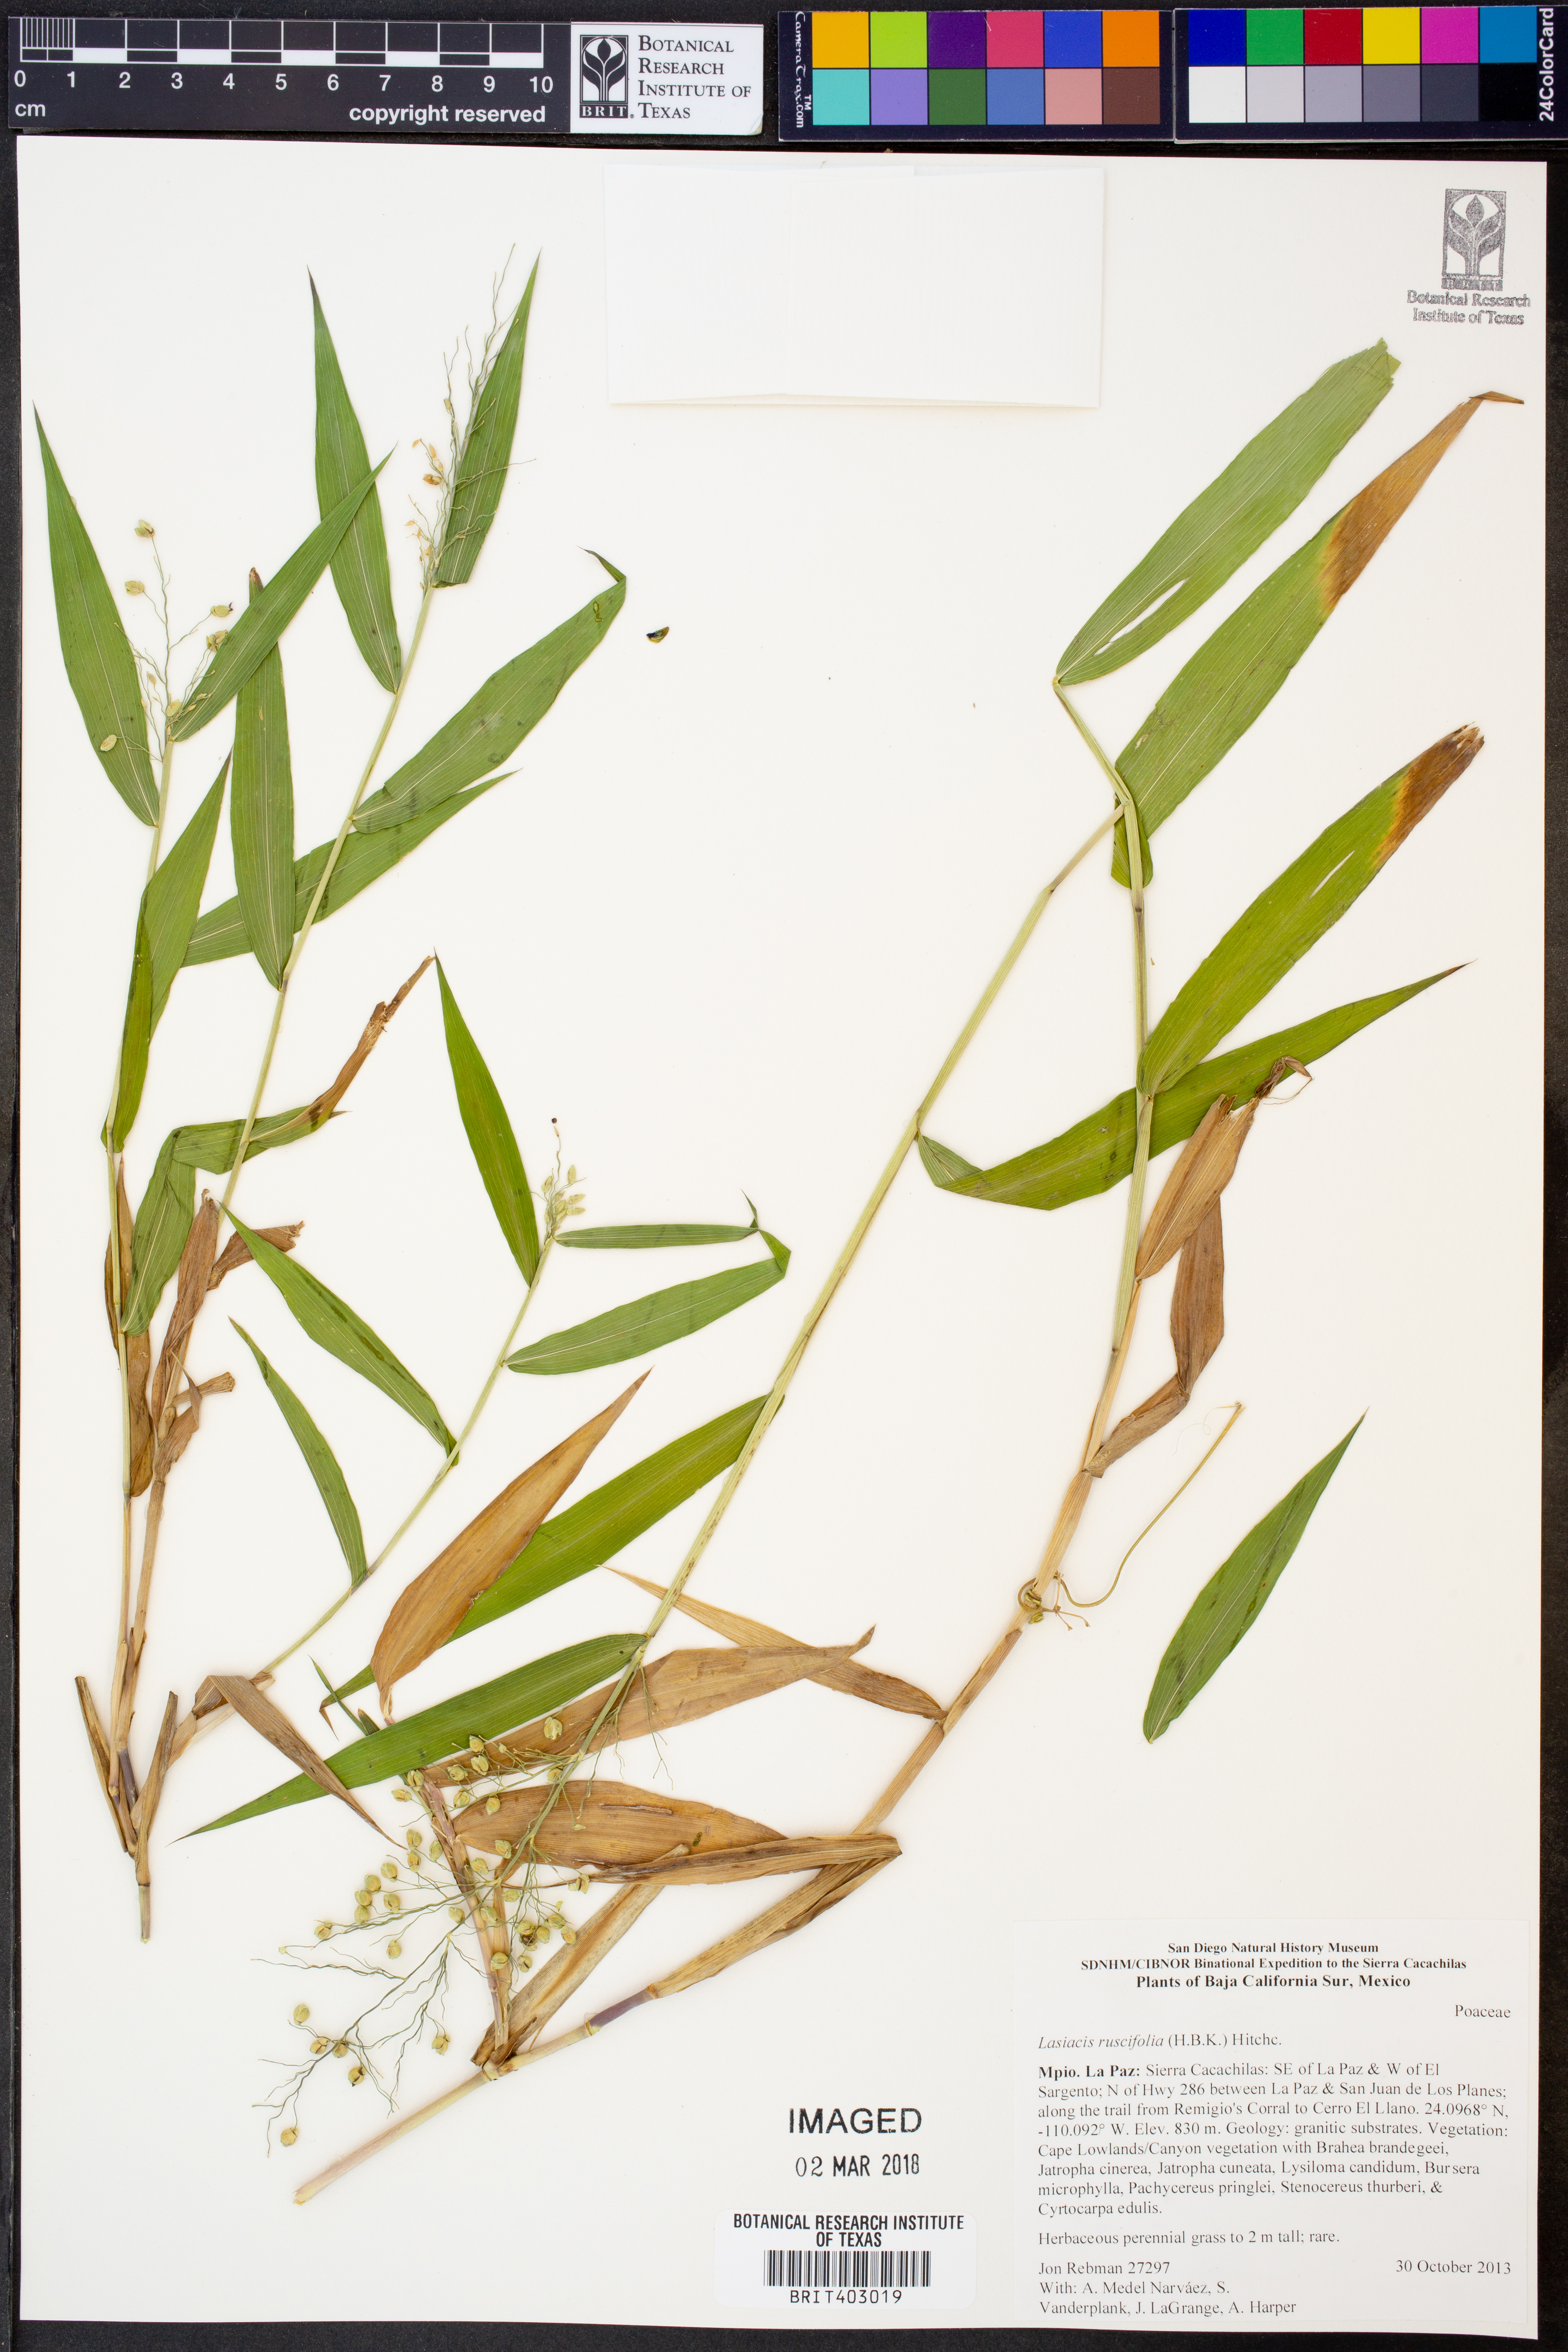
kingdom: Plantae
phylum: Tracheophyta
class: Liliopsida
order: Poales
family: Poaceae
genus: Lasiacis
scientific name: Lasiacis ruscifolia
